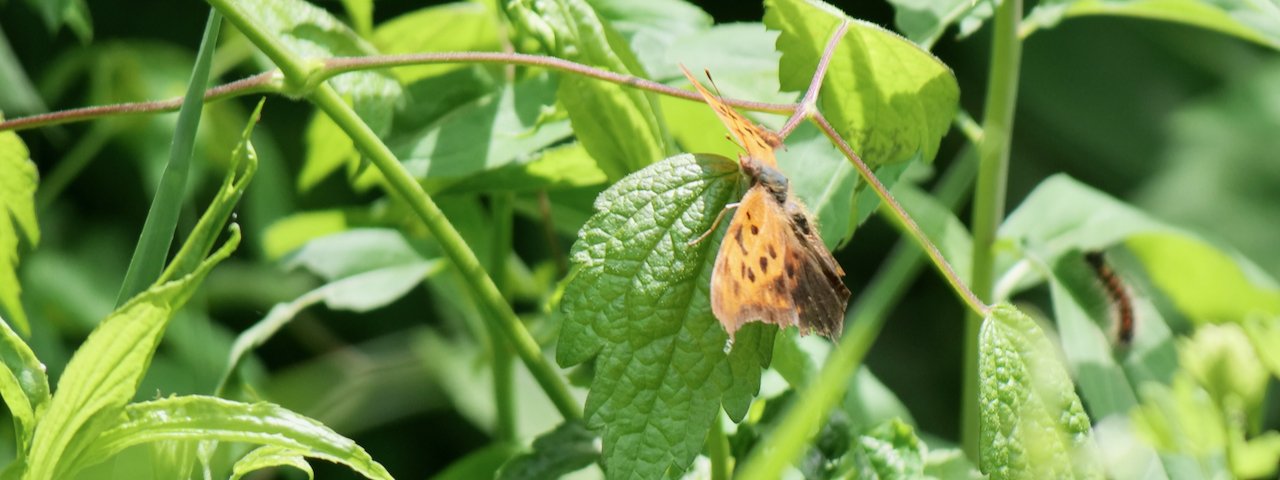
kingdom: Animalia
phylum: Arthropoda
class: Insecta
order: Lepidoptera
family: Nymphalidae
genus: Polygonia
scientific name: Polygonia interrogationis
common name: Question Mark
